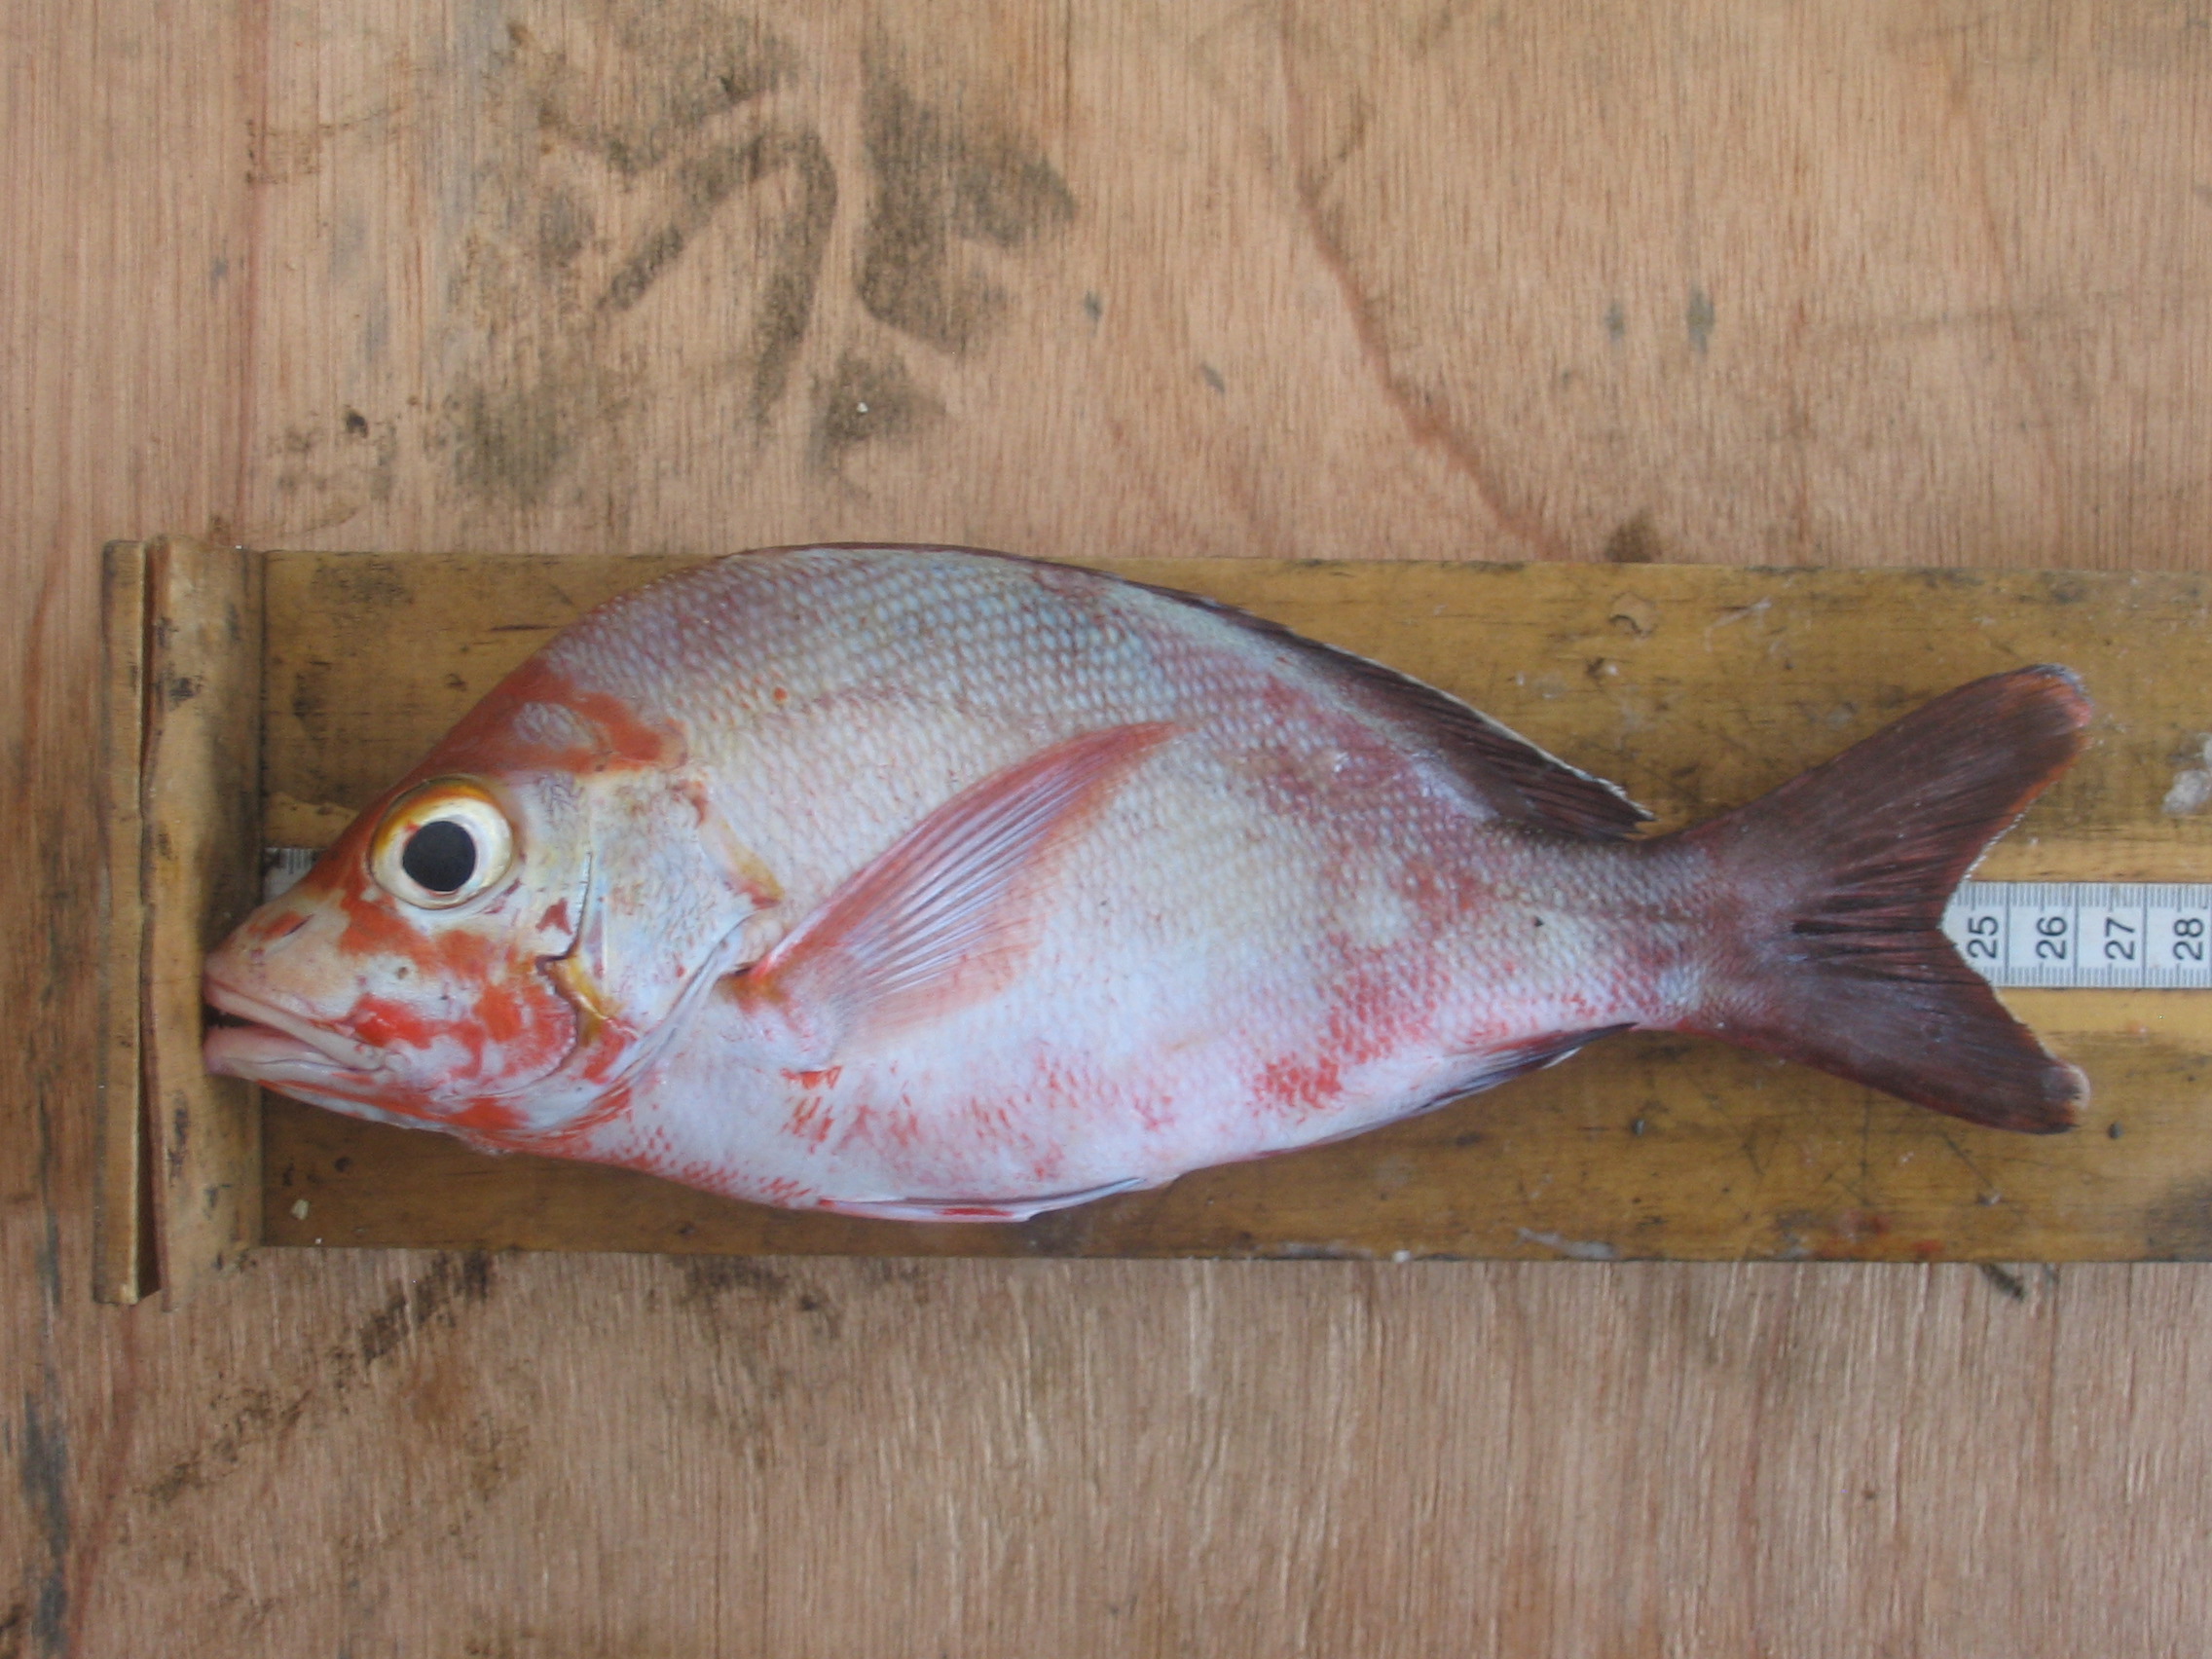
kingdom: Animalia
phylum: Chordata
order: Perciformes
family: Lutjanidae
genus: Lutjanus
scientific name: Lutjanus gibbus
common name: Humpback snapper
